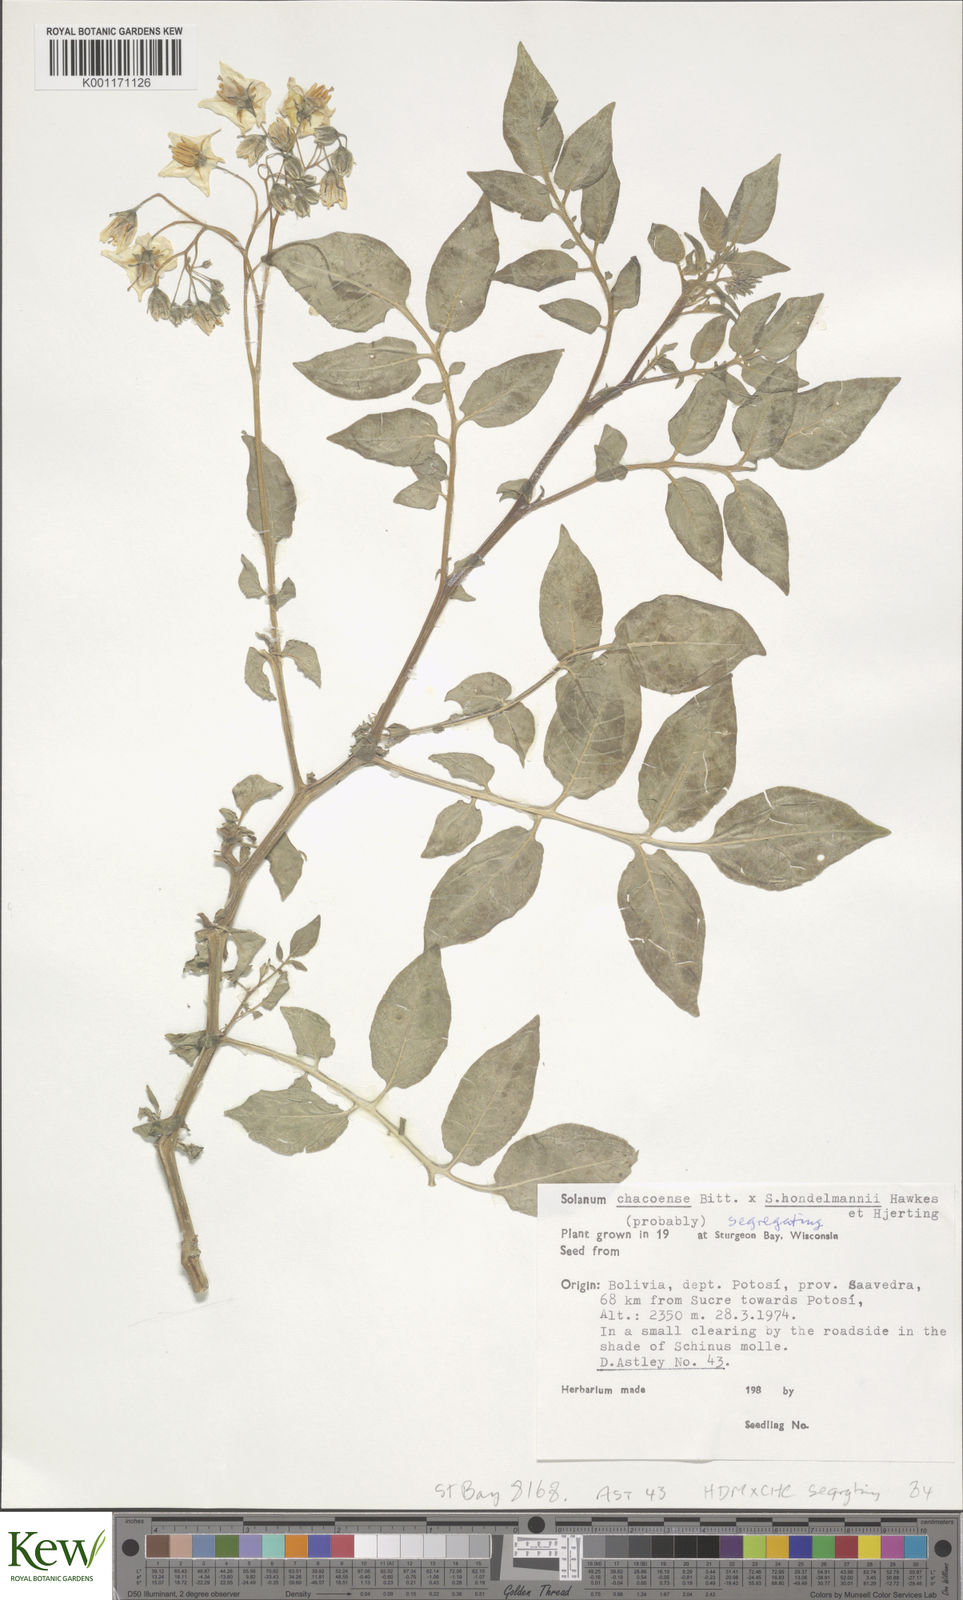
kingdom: Plantae
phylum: Tracheophyta
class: Magnoliopsida
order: Solanales
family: Solanaceae
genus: Solanum
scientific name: Solanum chacoense
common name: Chaco potato
